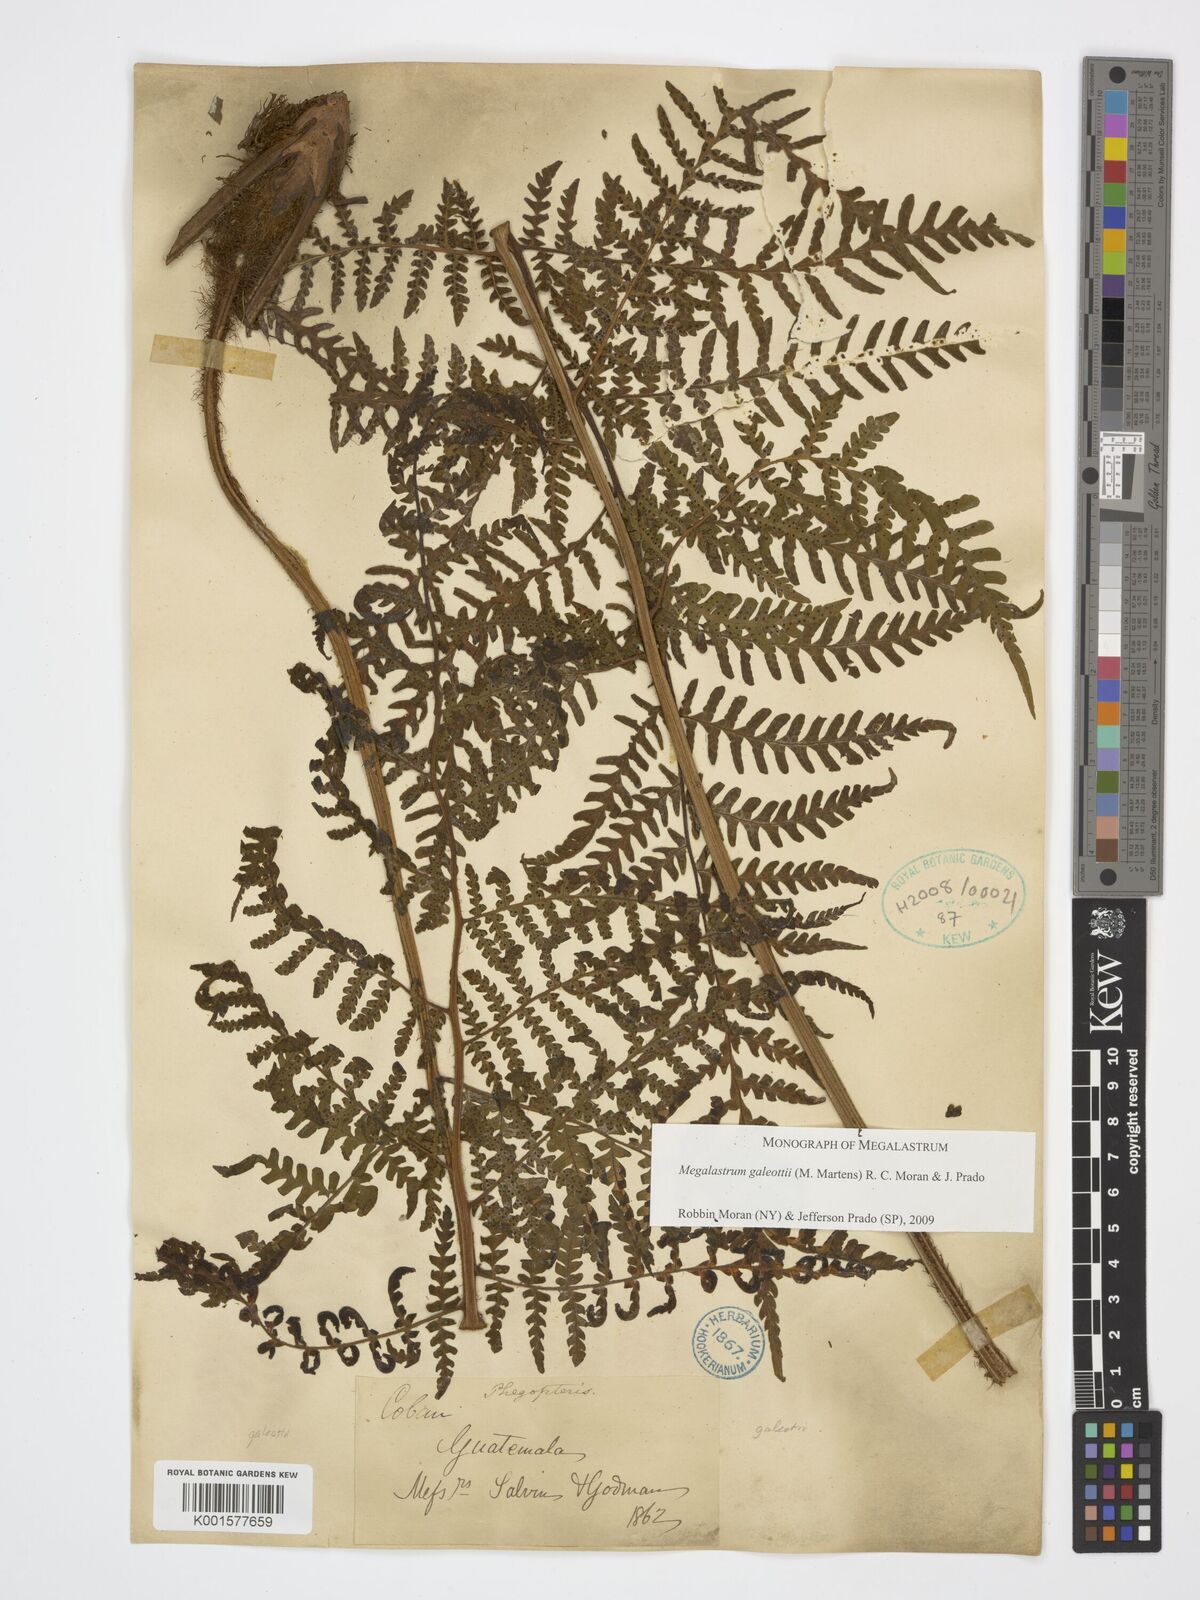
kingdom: Plantae
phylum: Tracheophyta
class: Polypodiopsida
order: Polypodiales
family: Dryopteridaceae
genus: Megalastrum
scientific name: Megalastrum galeottii
